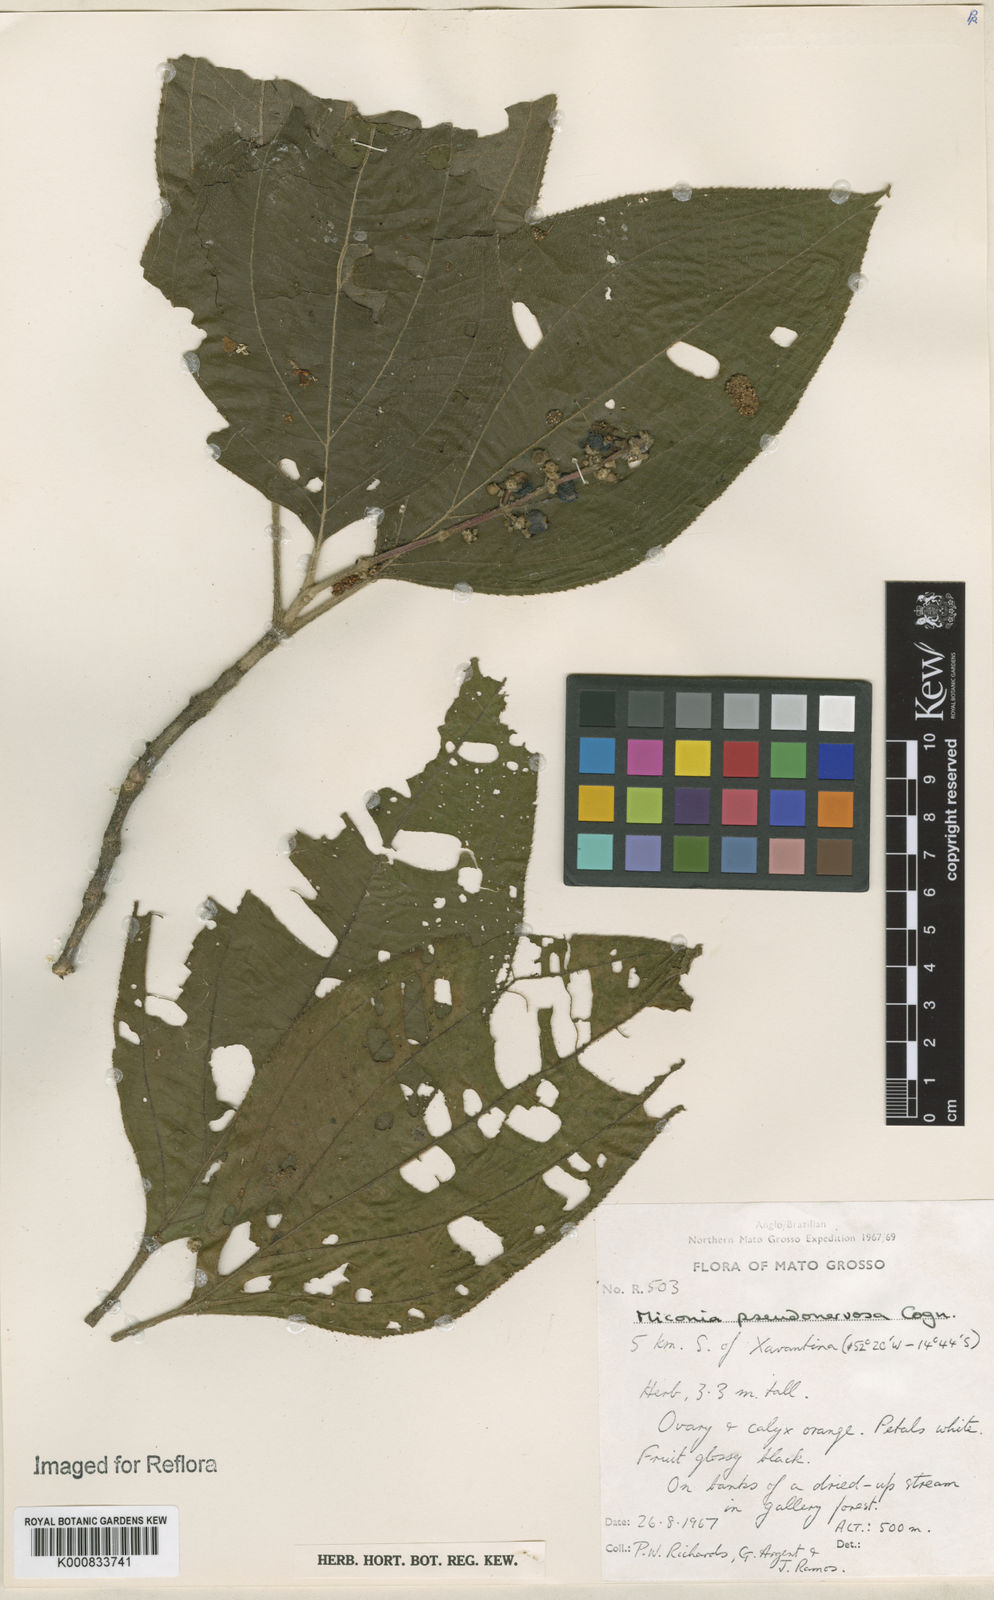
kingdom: Plantae
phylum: Tracheophyta
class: Magnoliopsida
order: Myrtales
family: Melastomataceae
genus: Miconia
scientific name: Miconia pseudonervosa
